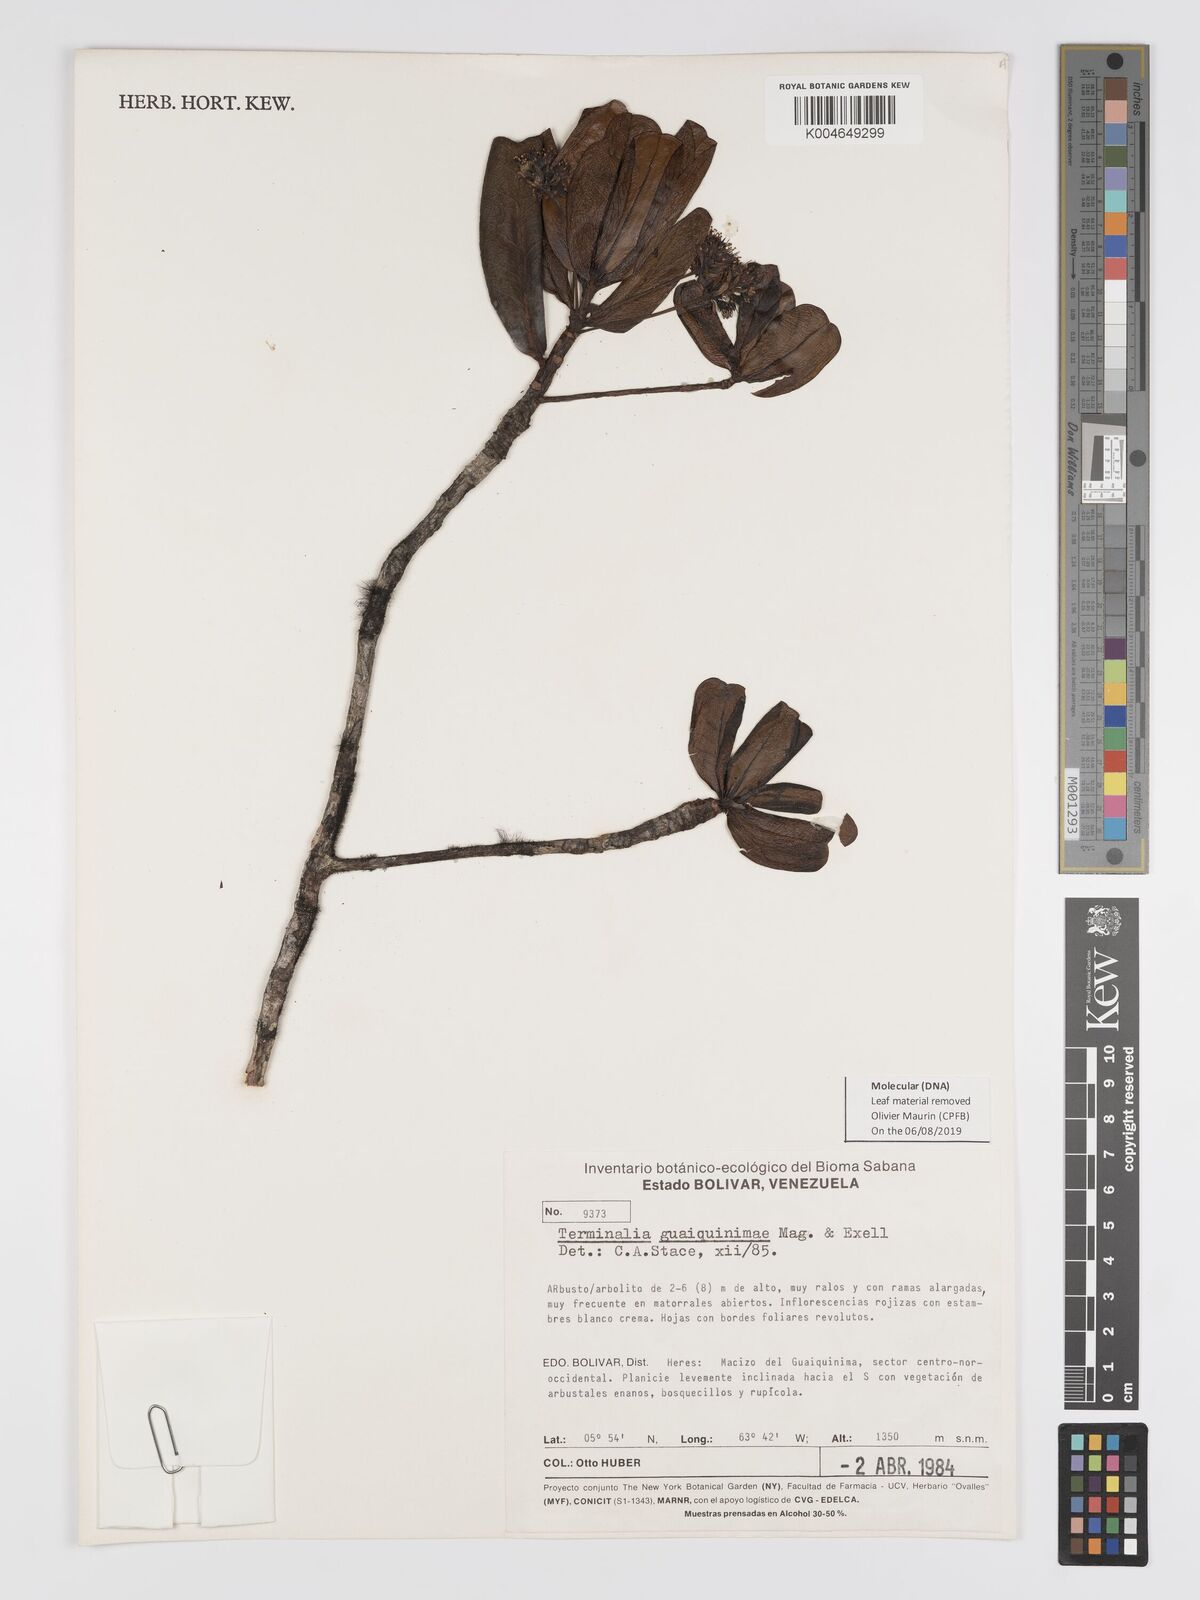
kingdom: Plantae
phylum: Tracheophyta
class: Magnoliopsida
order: Myrtales
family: Combretaceae
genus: Terminalia
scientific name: Terminalia guaiquinimae
